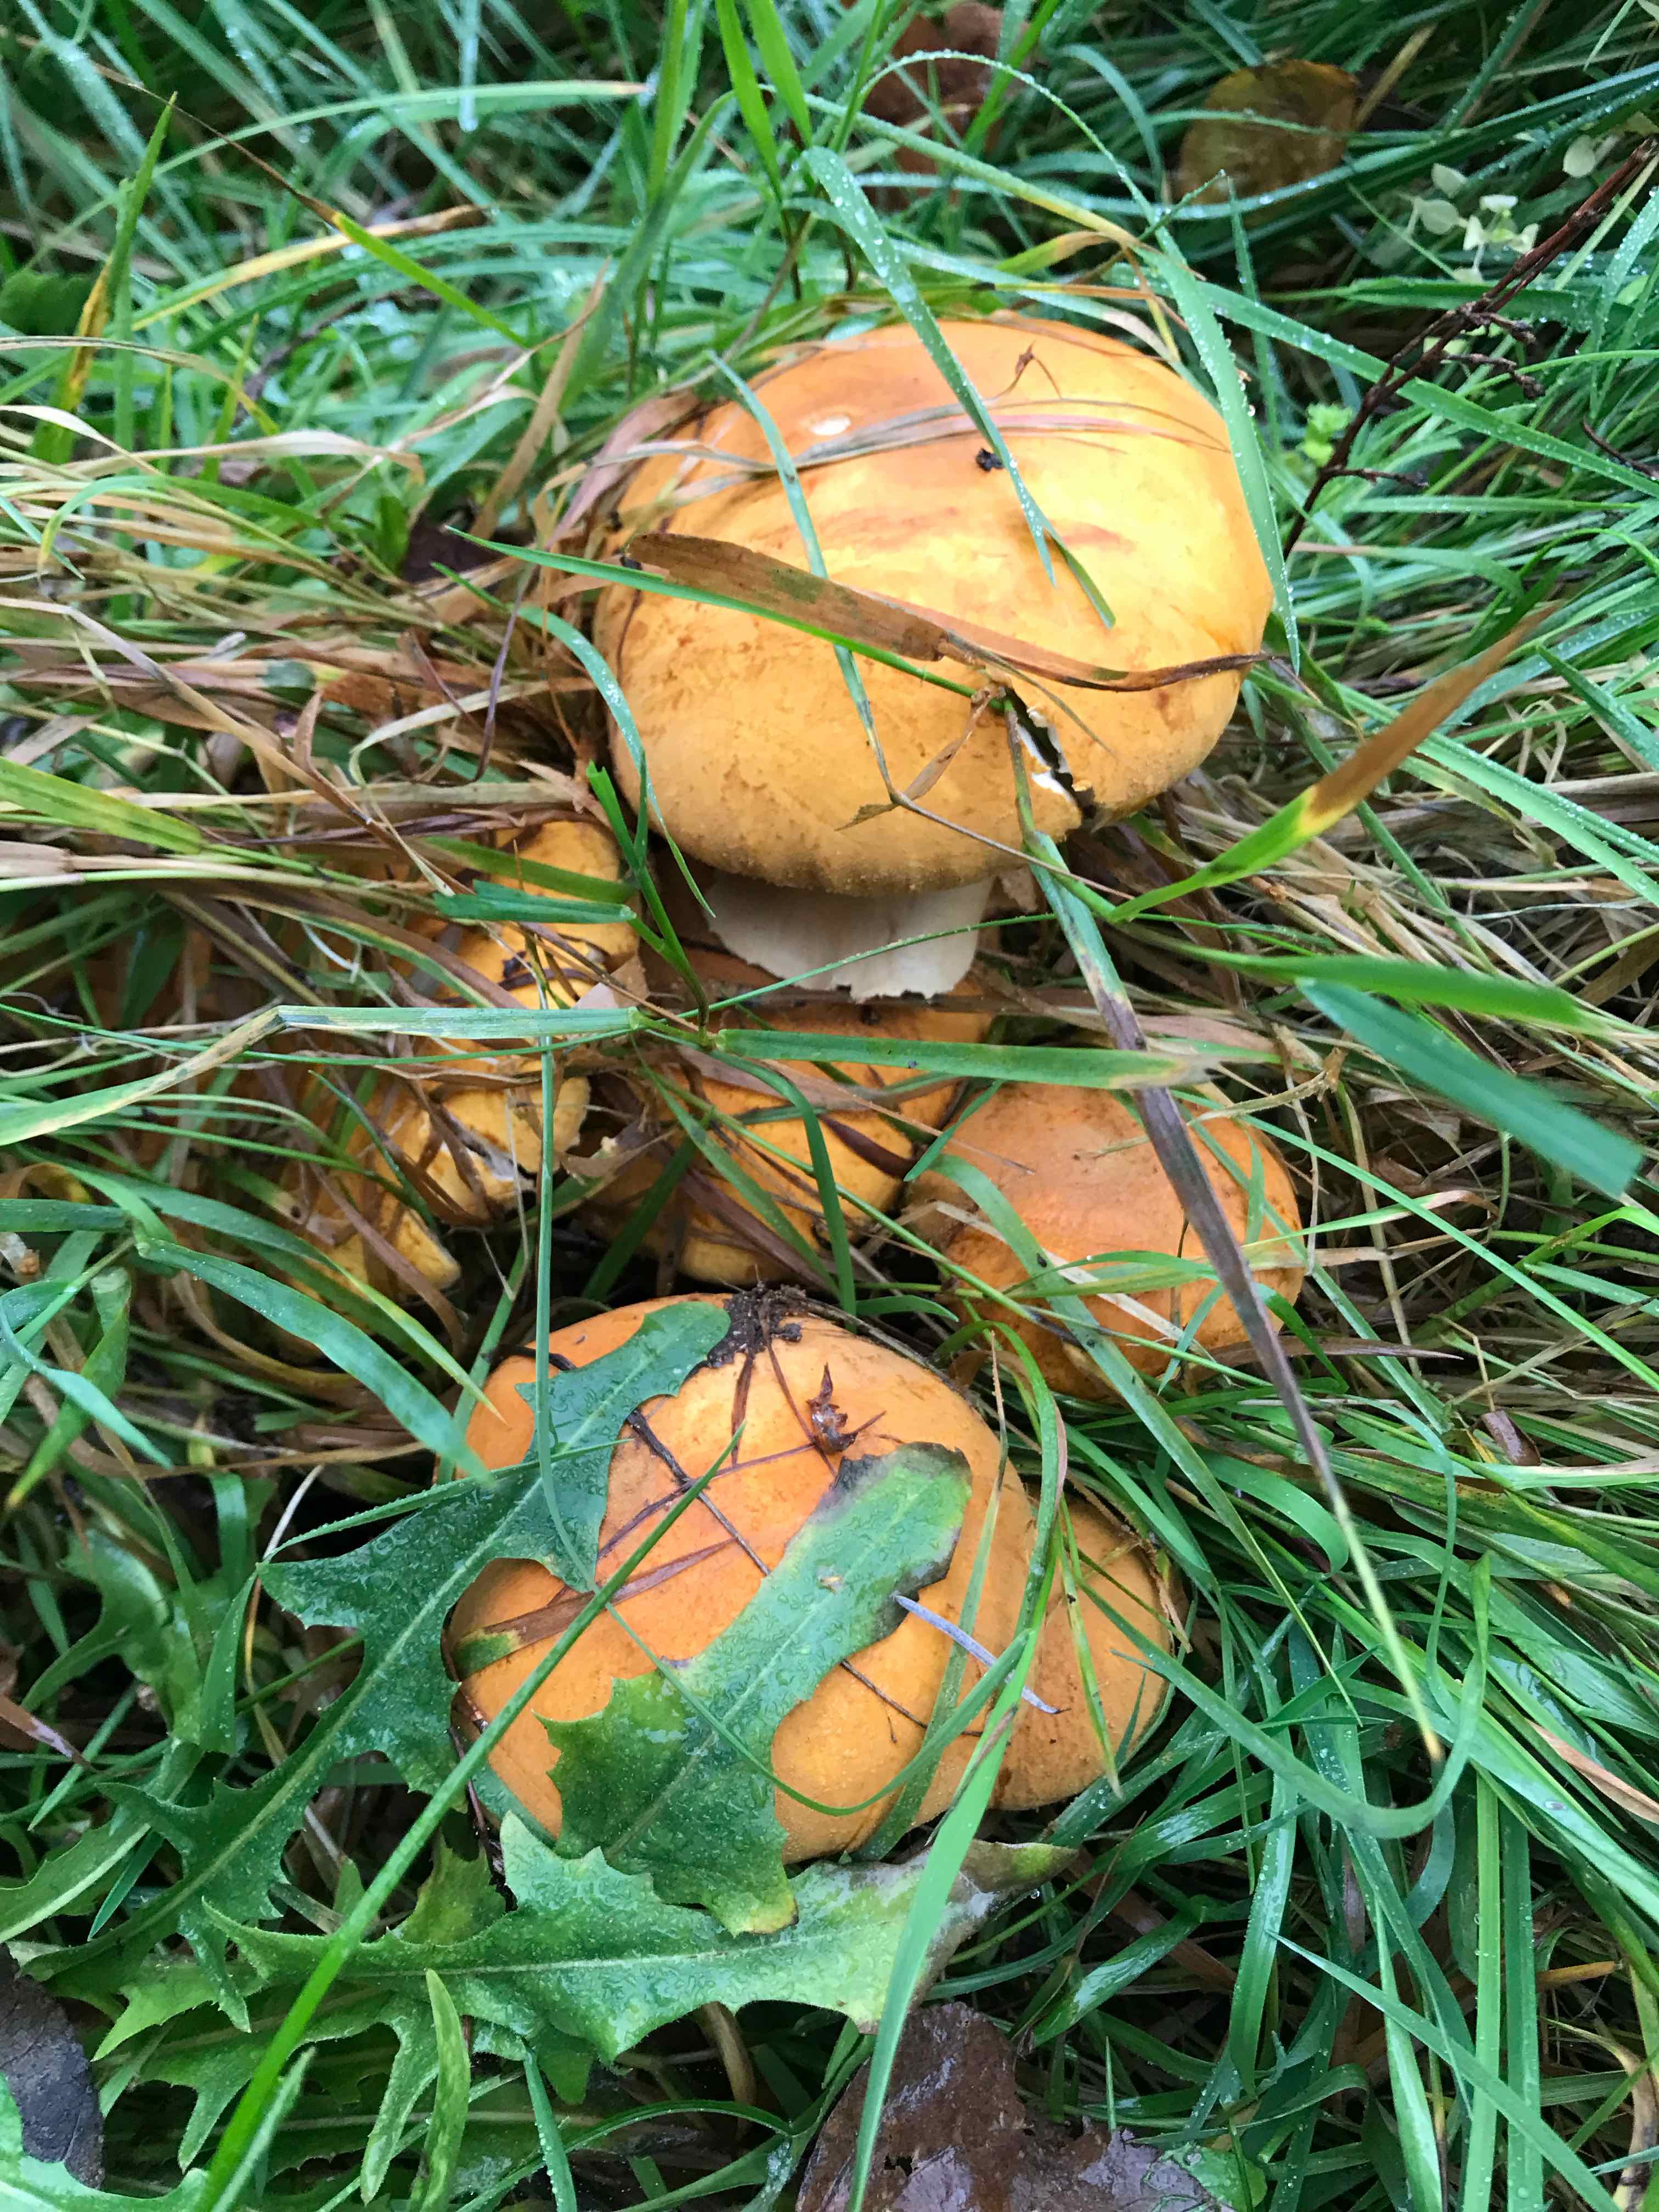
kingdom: Fungi
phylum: Basidiomycota
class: Agaricomycetes
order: Agaricales
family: Tricholomataceae
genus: Phaeolepiota
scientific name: Phaeolepiota aurea
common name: gyldenhat
